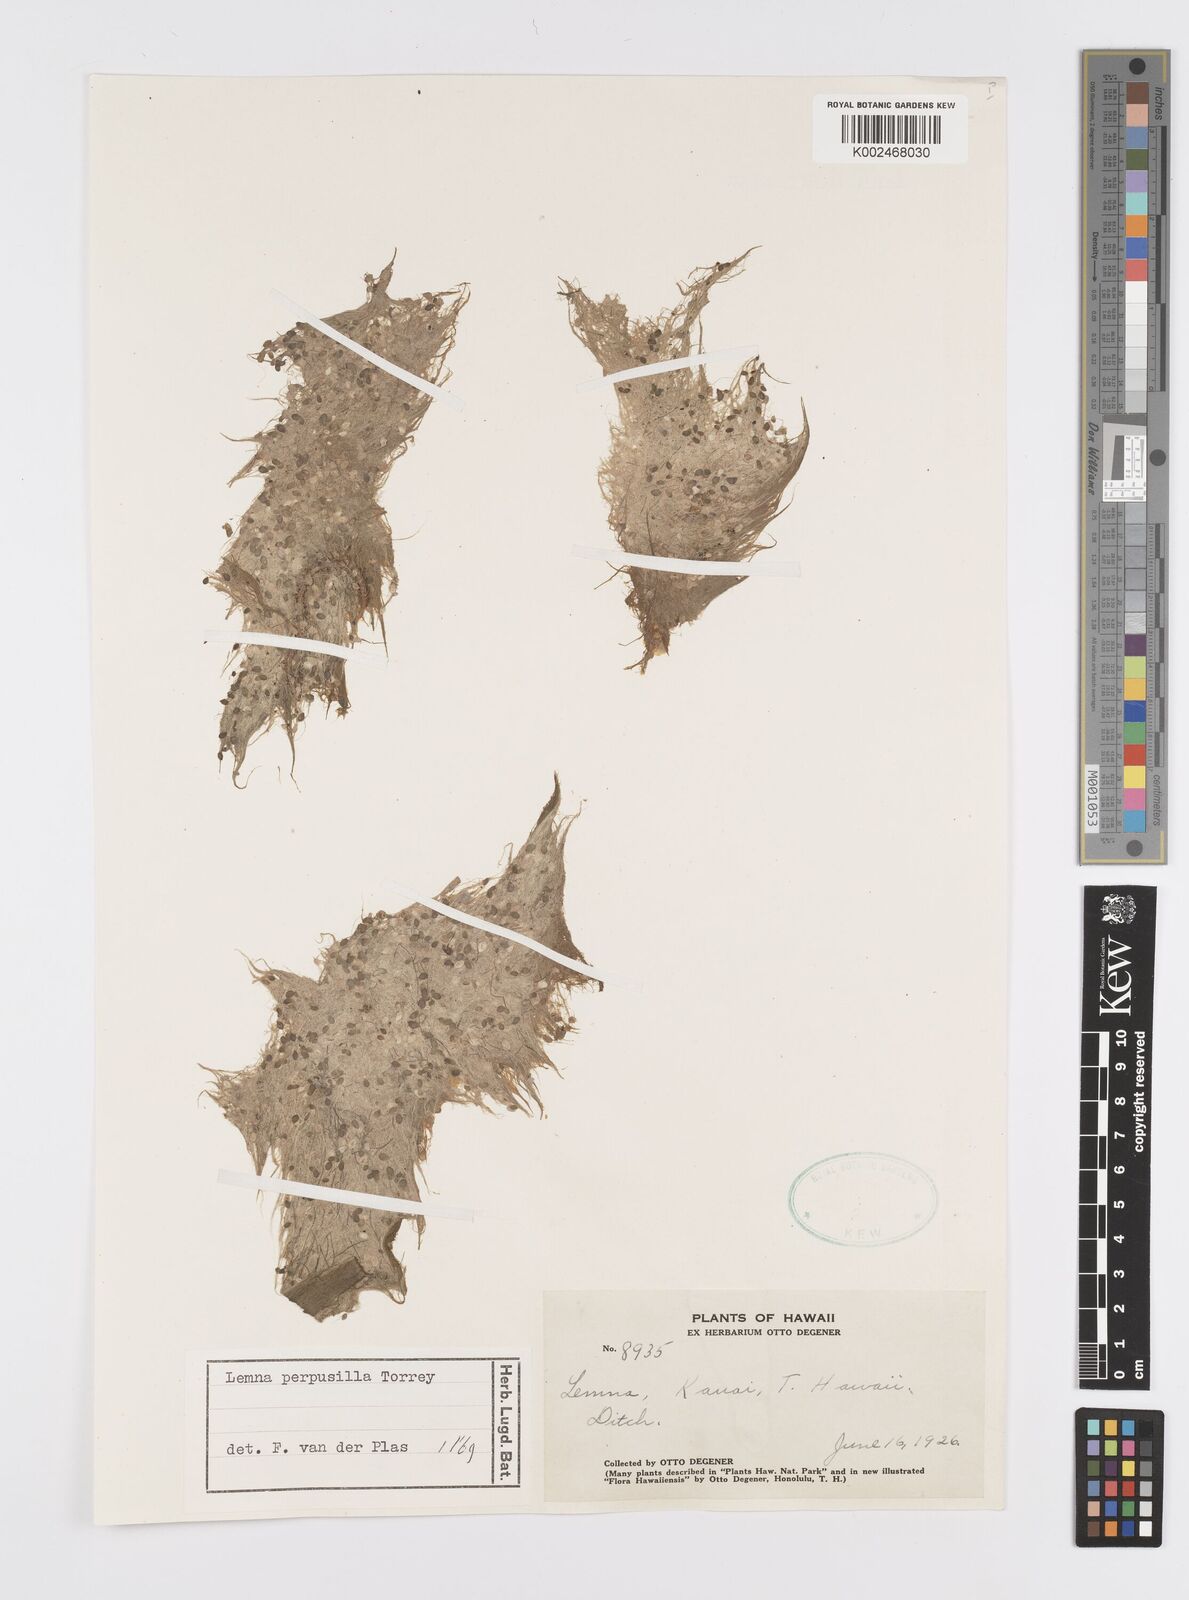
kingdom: Plantae
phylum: Tracheophyta
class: Liliopsida
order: Alismatales
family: Araceae
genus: Lemna
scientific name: Lemna perpusilla
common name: Duckweed
